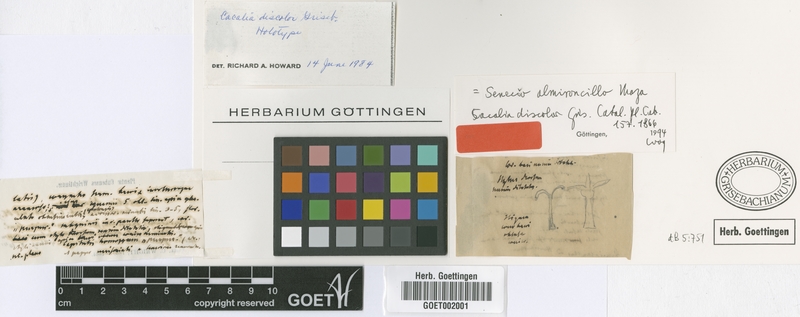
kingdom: Plantae
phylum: Tracheophyta
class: Magnoliopsida
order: Asterales
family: Asteraceae
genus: Antillanthus
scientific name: Antillanthus discolor
